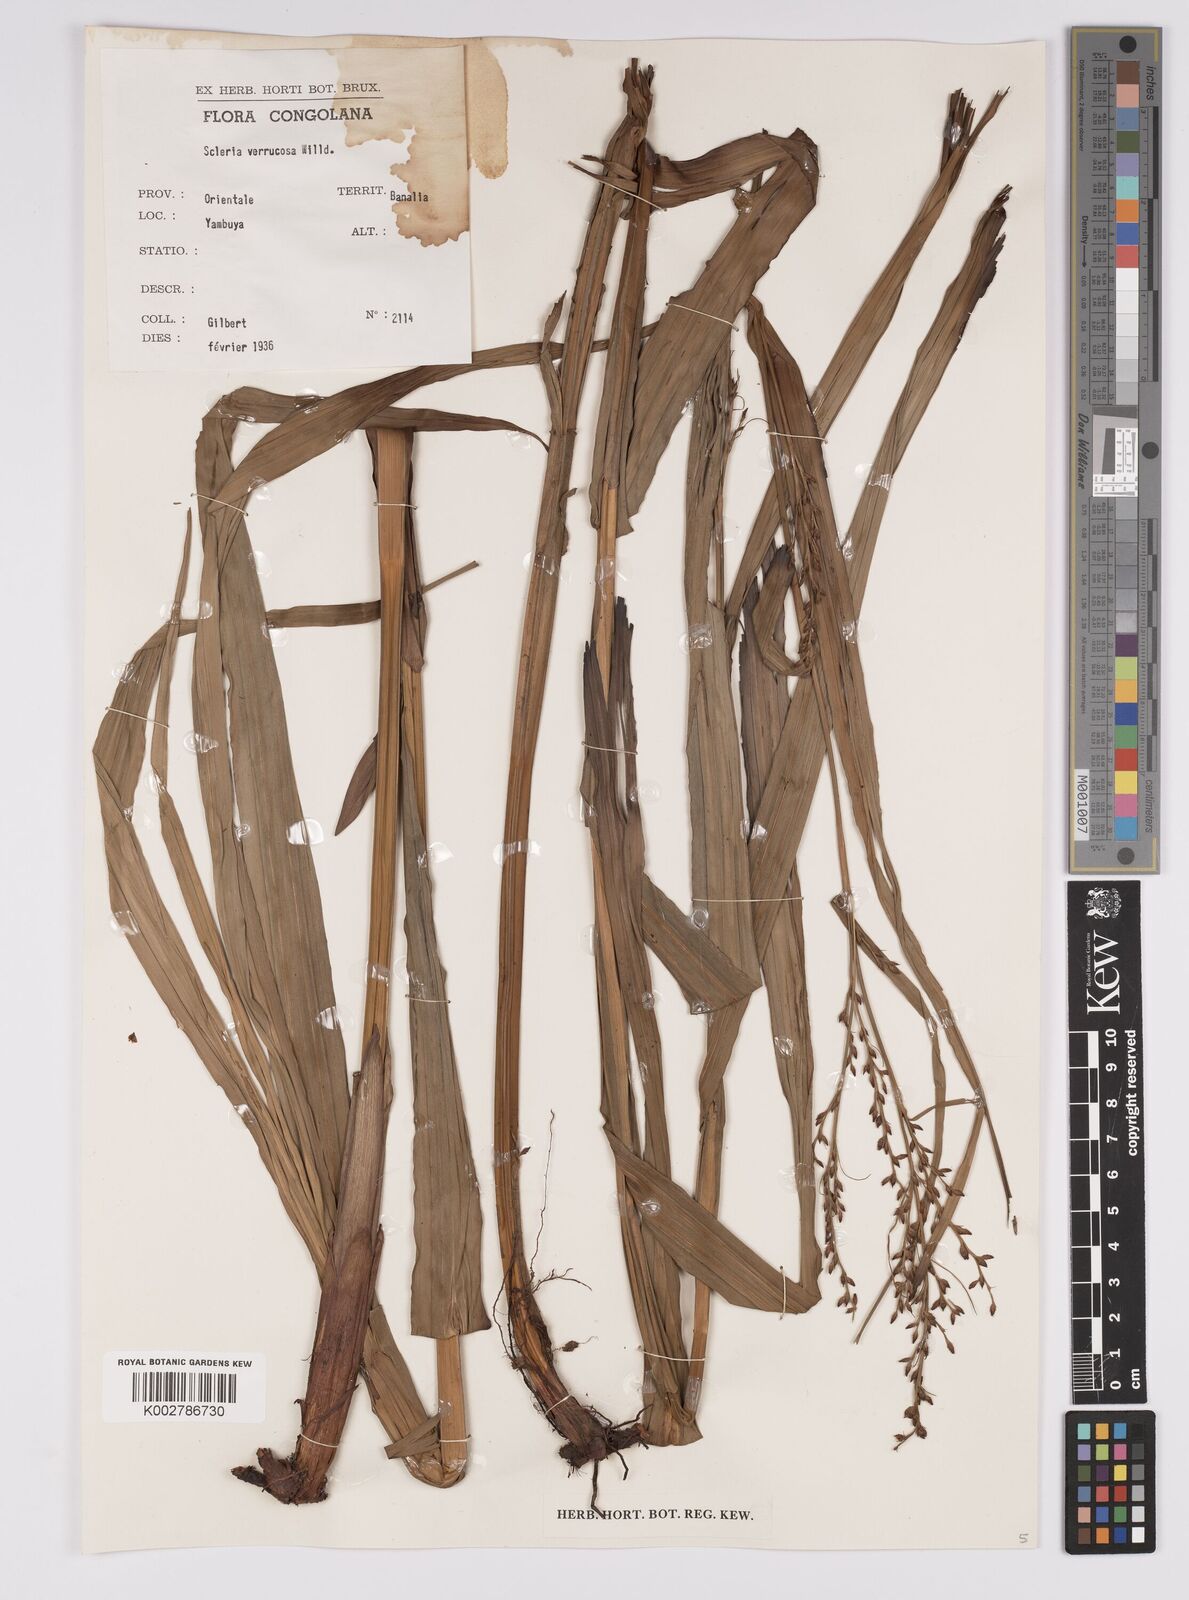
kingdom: Plantae
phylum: Tracheophyta
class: Liliopsida
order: Poales
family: Cyperaceae
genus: Scleria
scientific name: Scleria verrucosa
